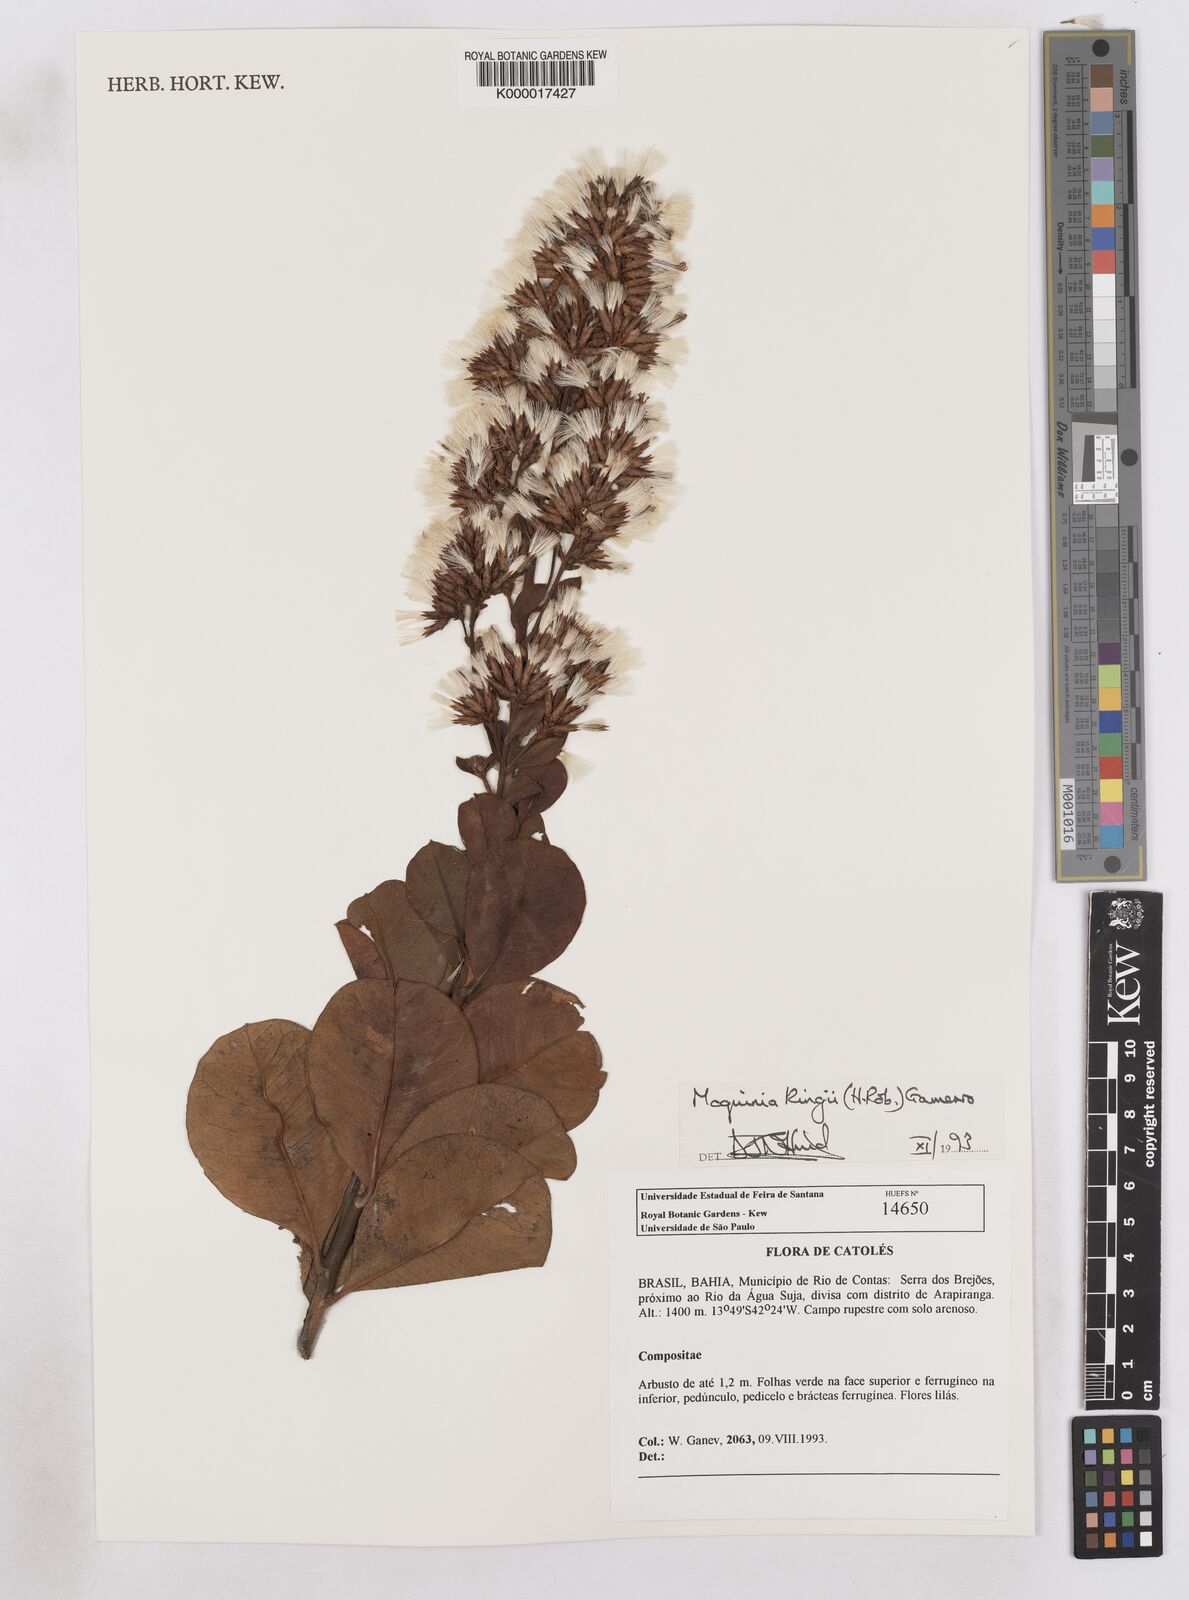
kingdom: Plantae
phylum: Tracheophyta
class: Magnoliopsida
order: Asterales
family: Asteraceae
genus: Pseudostifftia
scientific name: Pseudostifftia kingii
